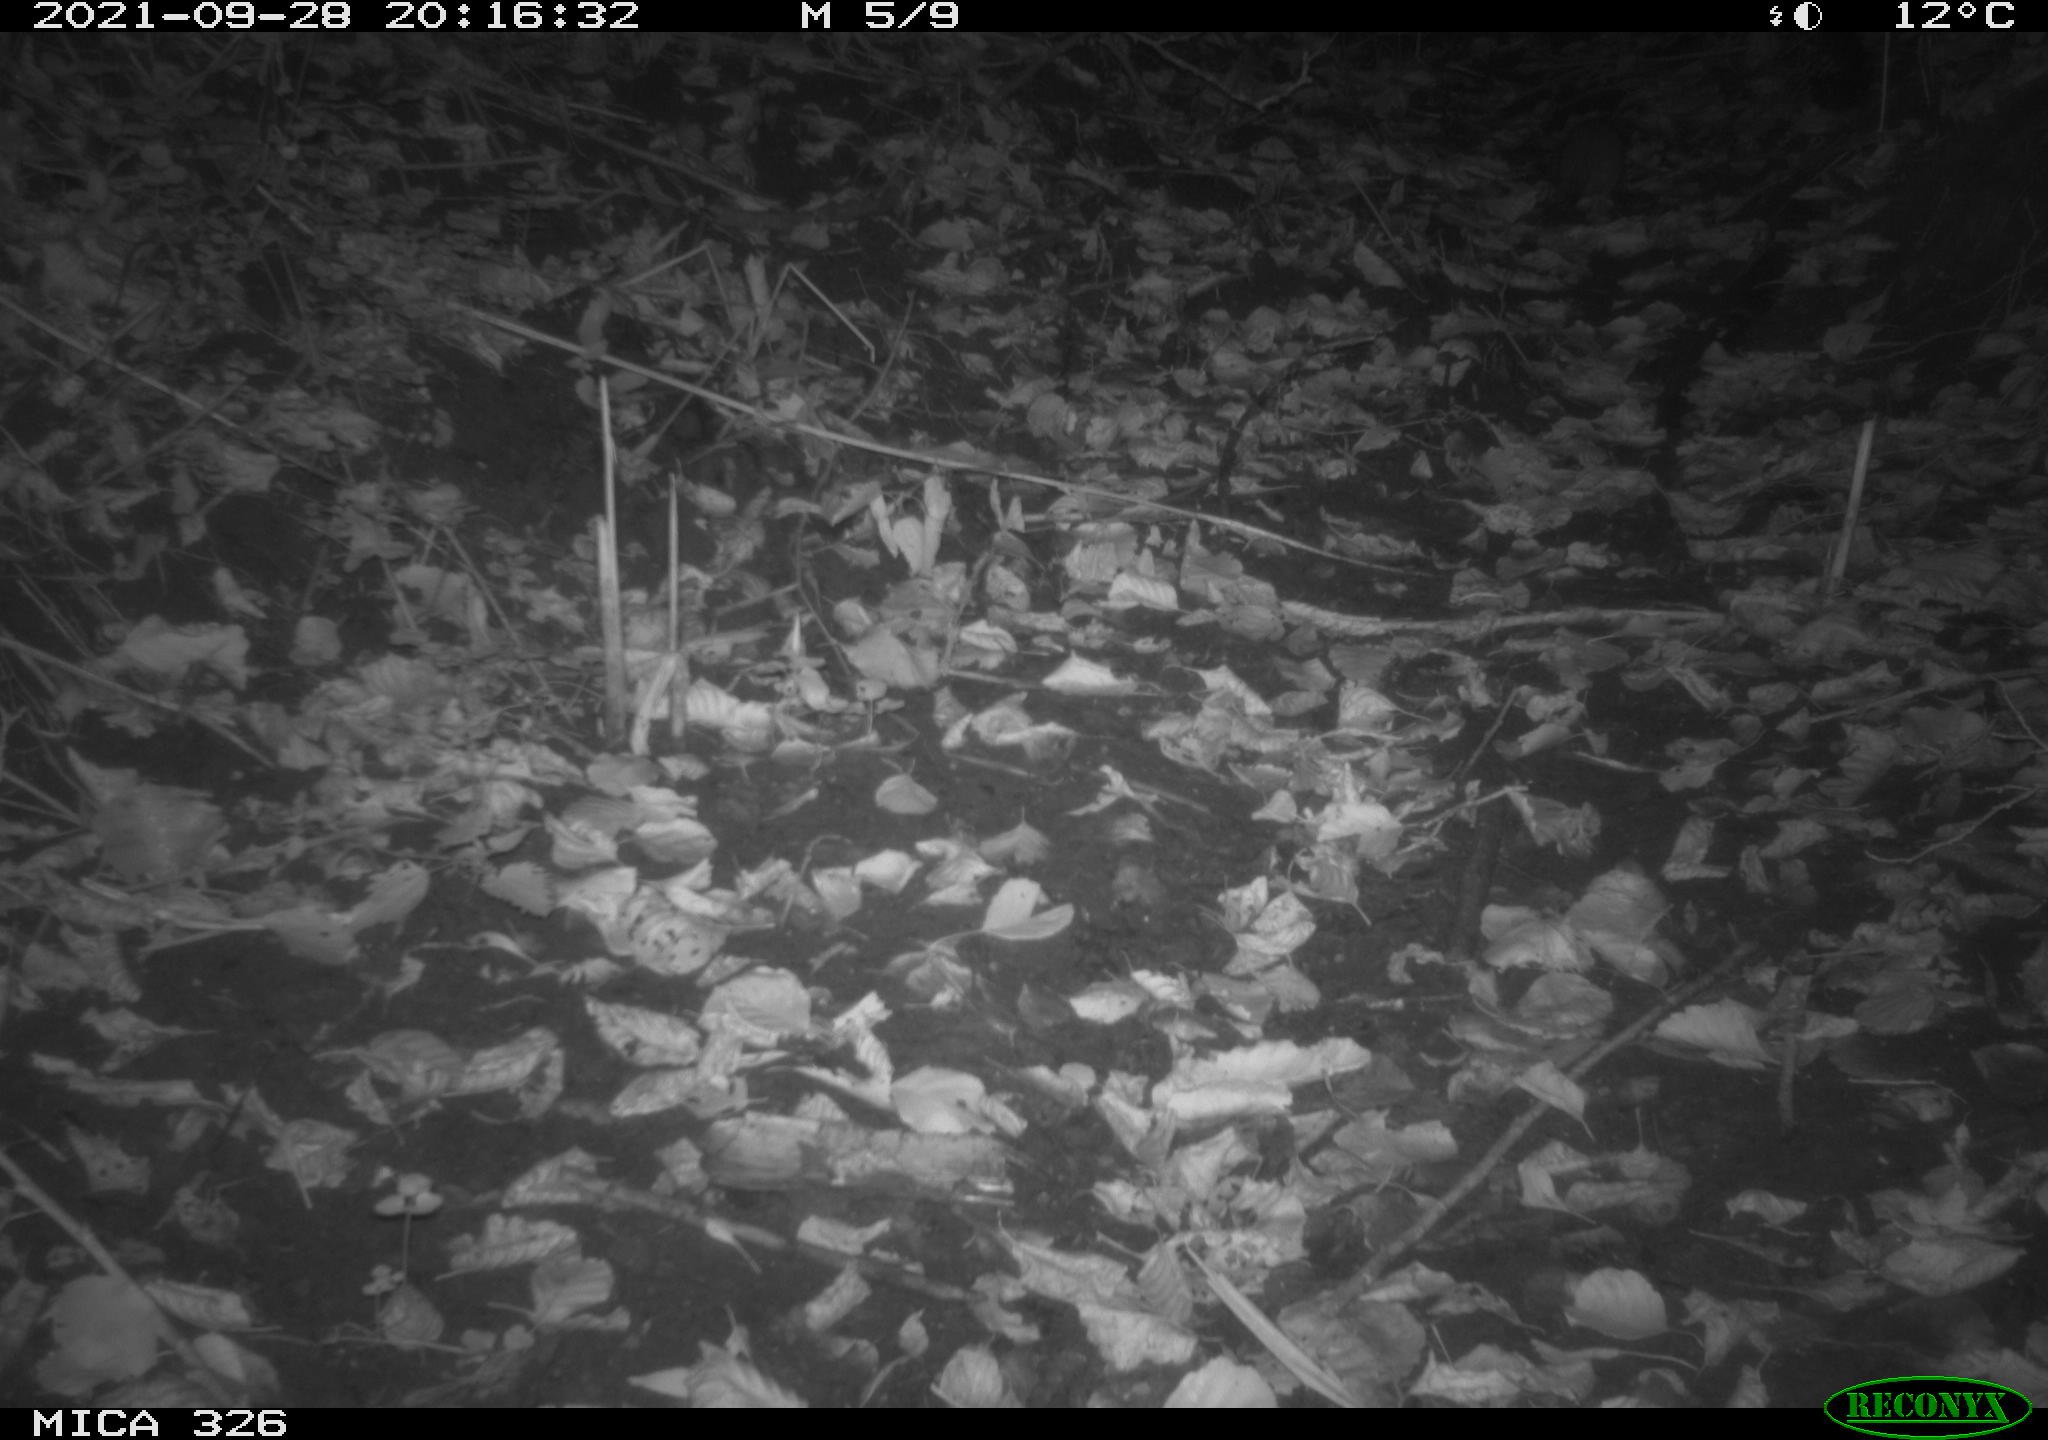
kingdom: Animalia
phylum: Chordata
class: Mammalia
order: Rodentia
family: Muridae
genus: Rattus
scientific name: Rattus norvegicus
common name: Brown rat
